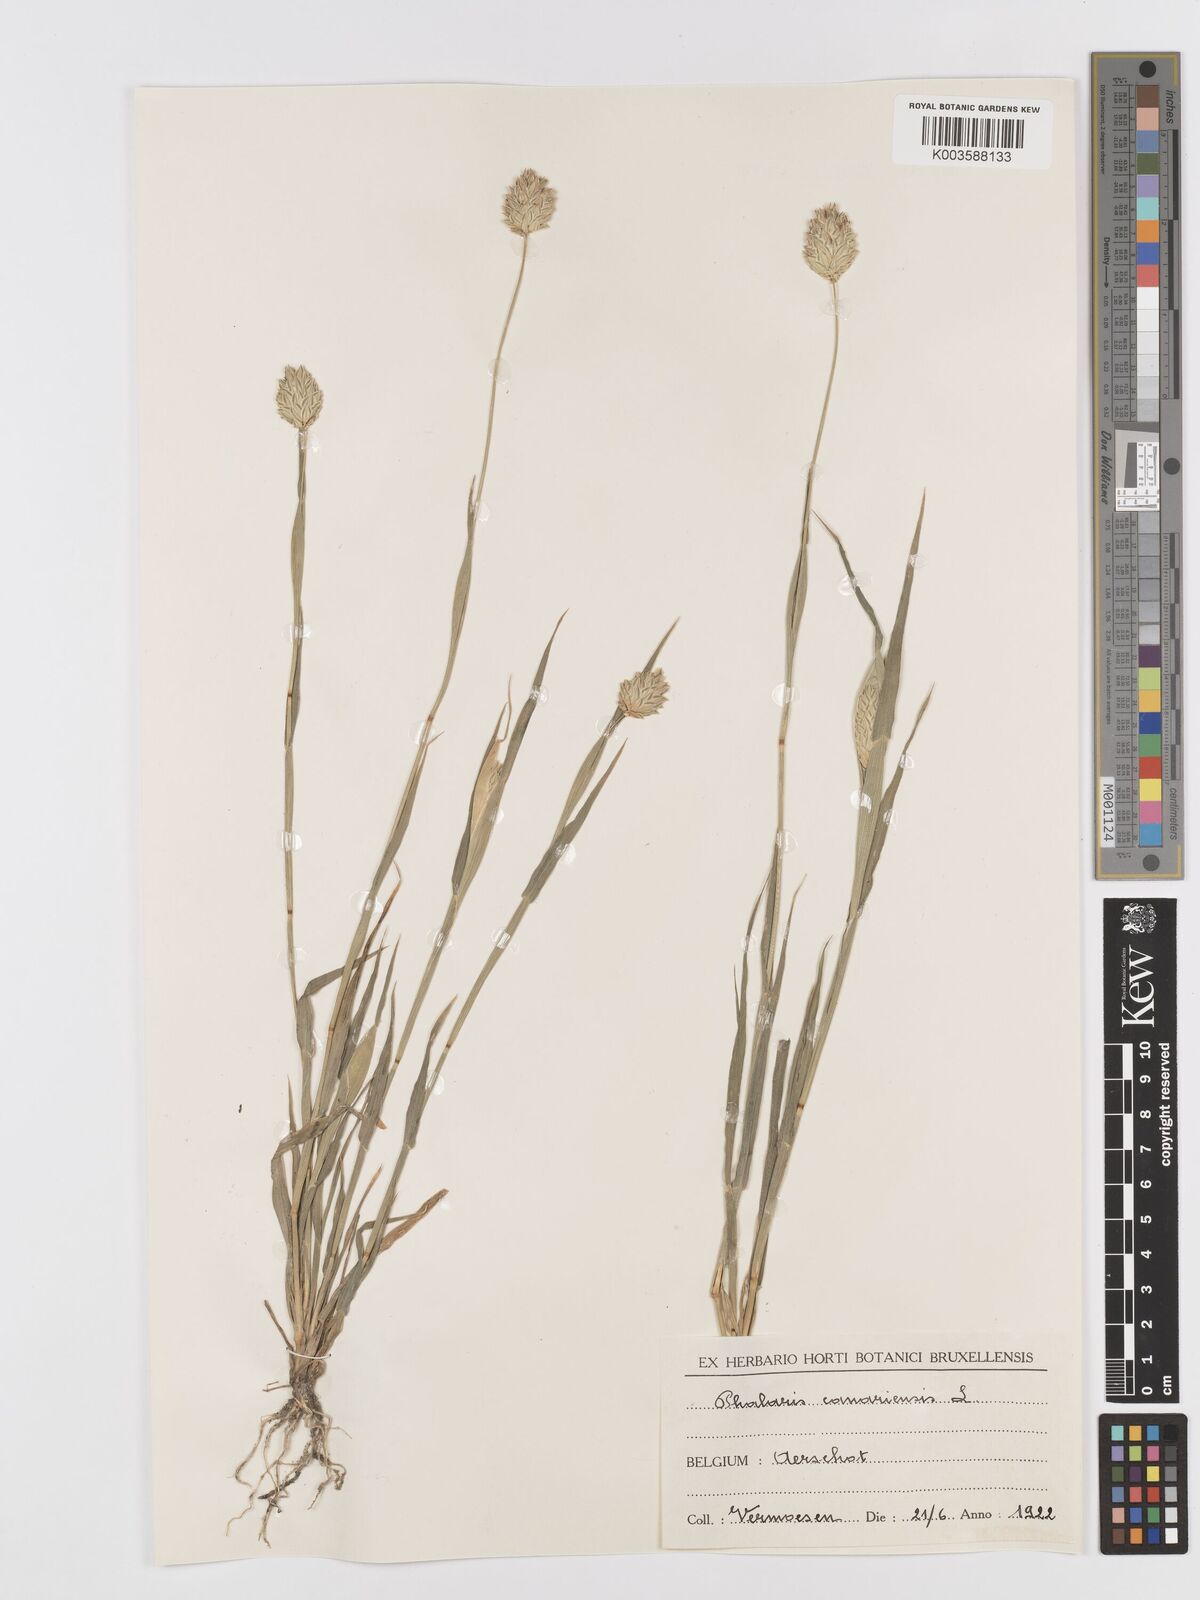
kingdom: Plantae
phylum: Tracheophyta
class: Liliopsida
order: Poales
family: Poaceae
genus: Phalaris
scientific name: Phalaris canariensis
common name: Annual canarygrass
